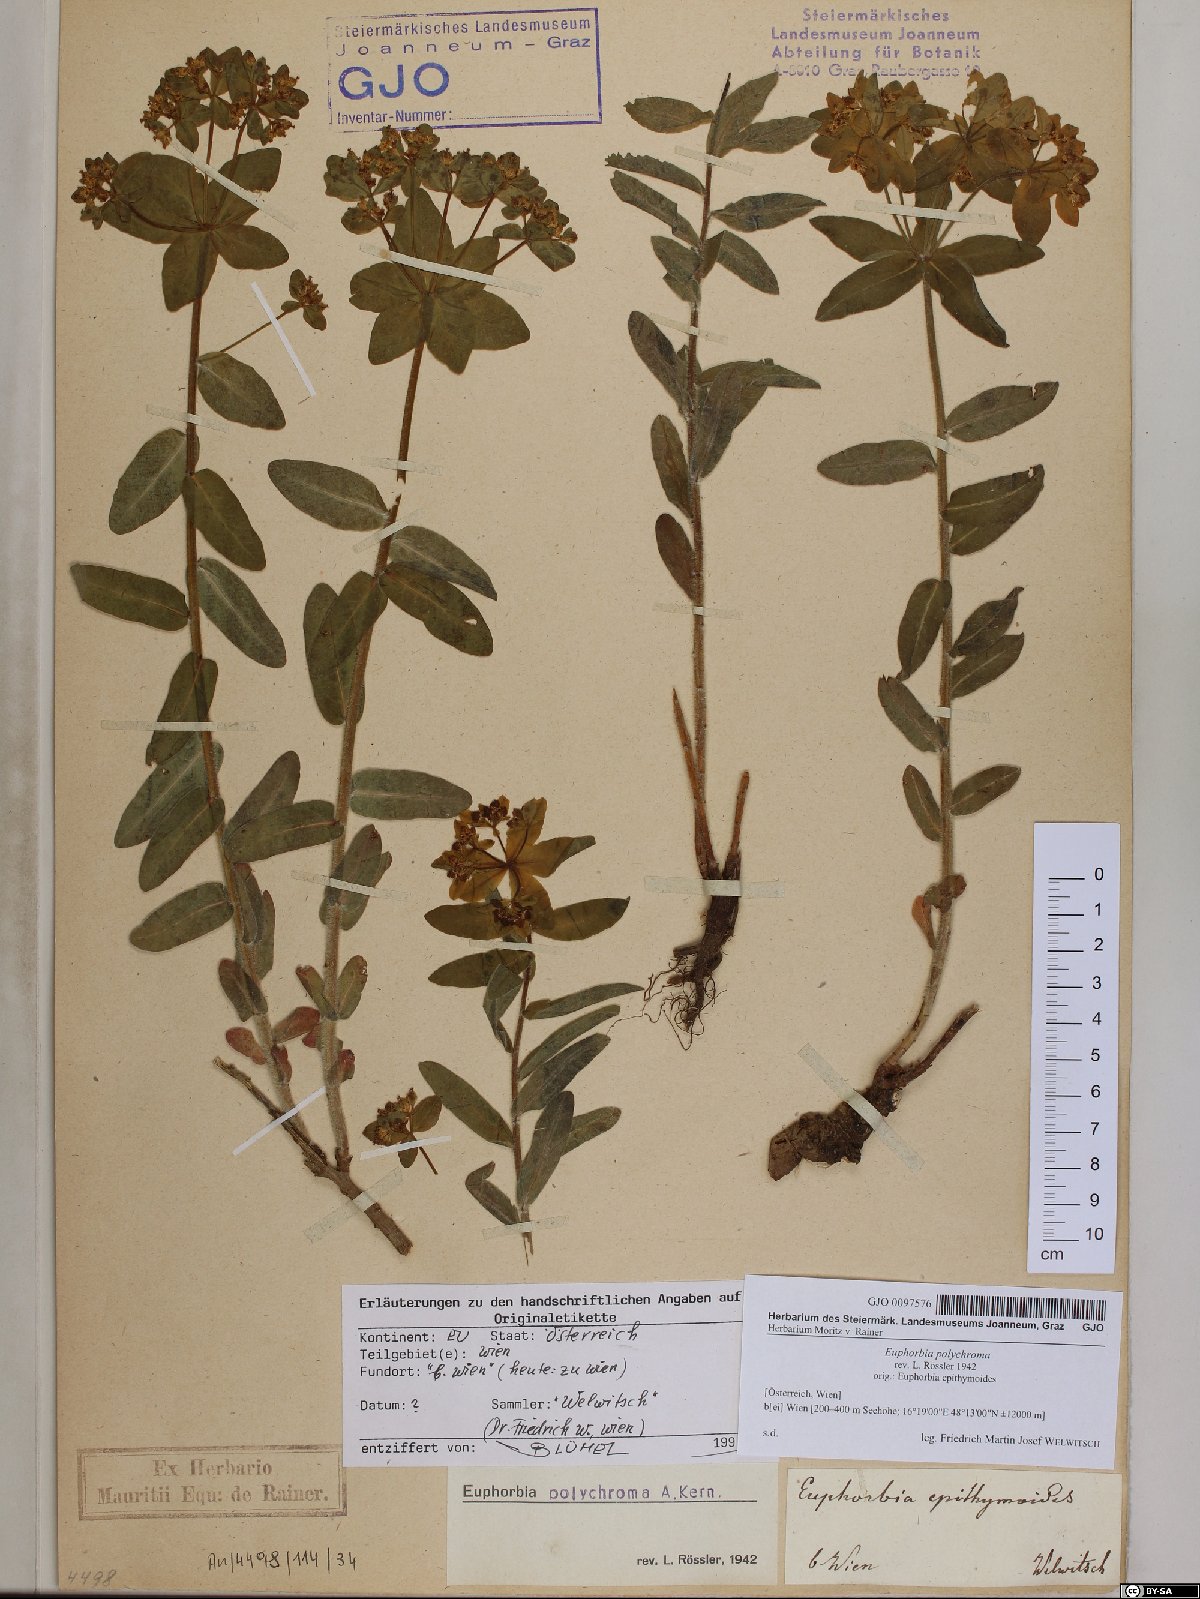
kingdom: Plantae
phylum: Tracheophyta
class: Magnoliopsida
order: Malpighiales
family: Euphorbiaceae
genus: Euphorbia
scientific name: Euphorbia epithymoides
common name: Cushion spurge
